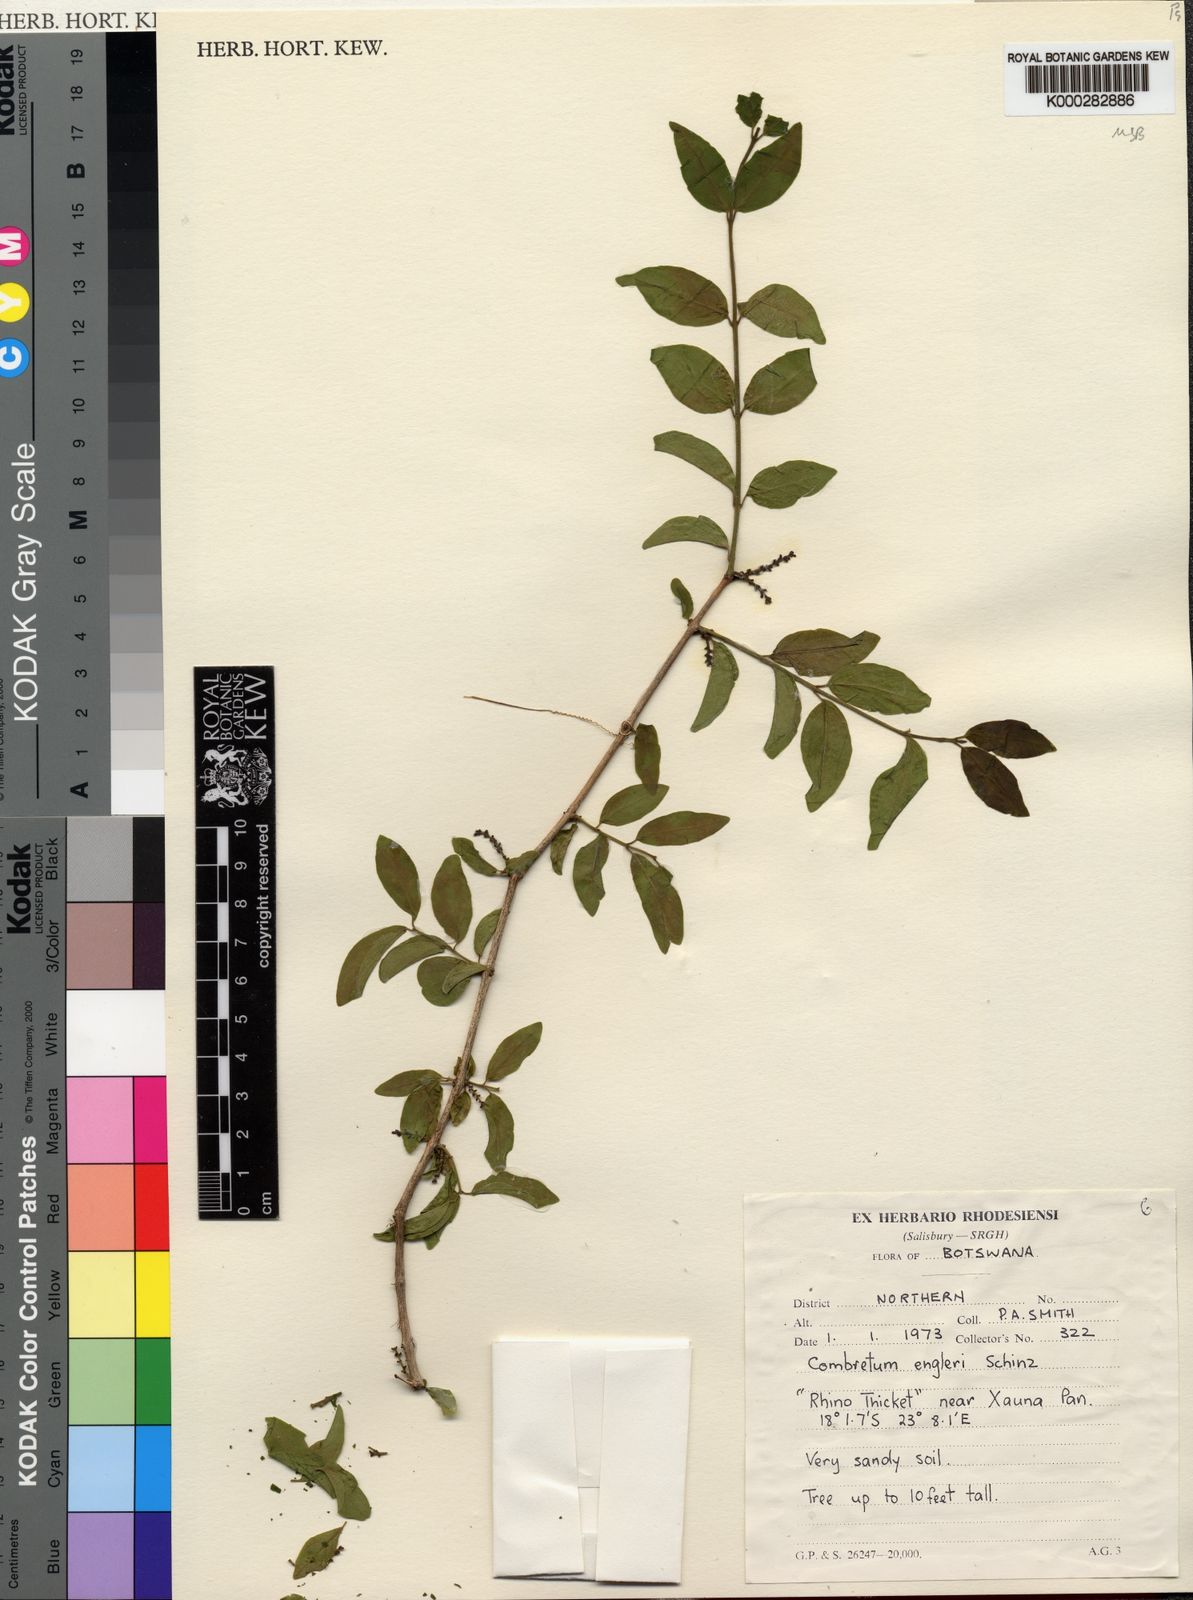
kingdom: Plantae
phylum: Tracheophyta
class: Magnoliopsida
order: Myrtales
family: Combretaceae
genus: Combretum
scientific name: Combretum schumannii
